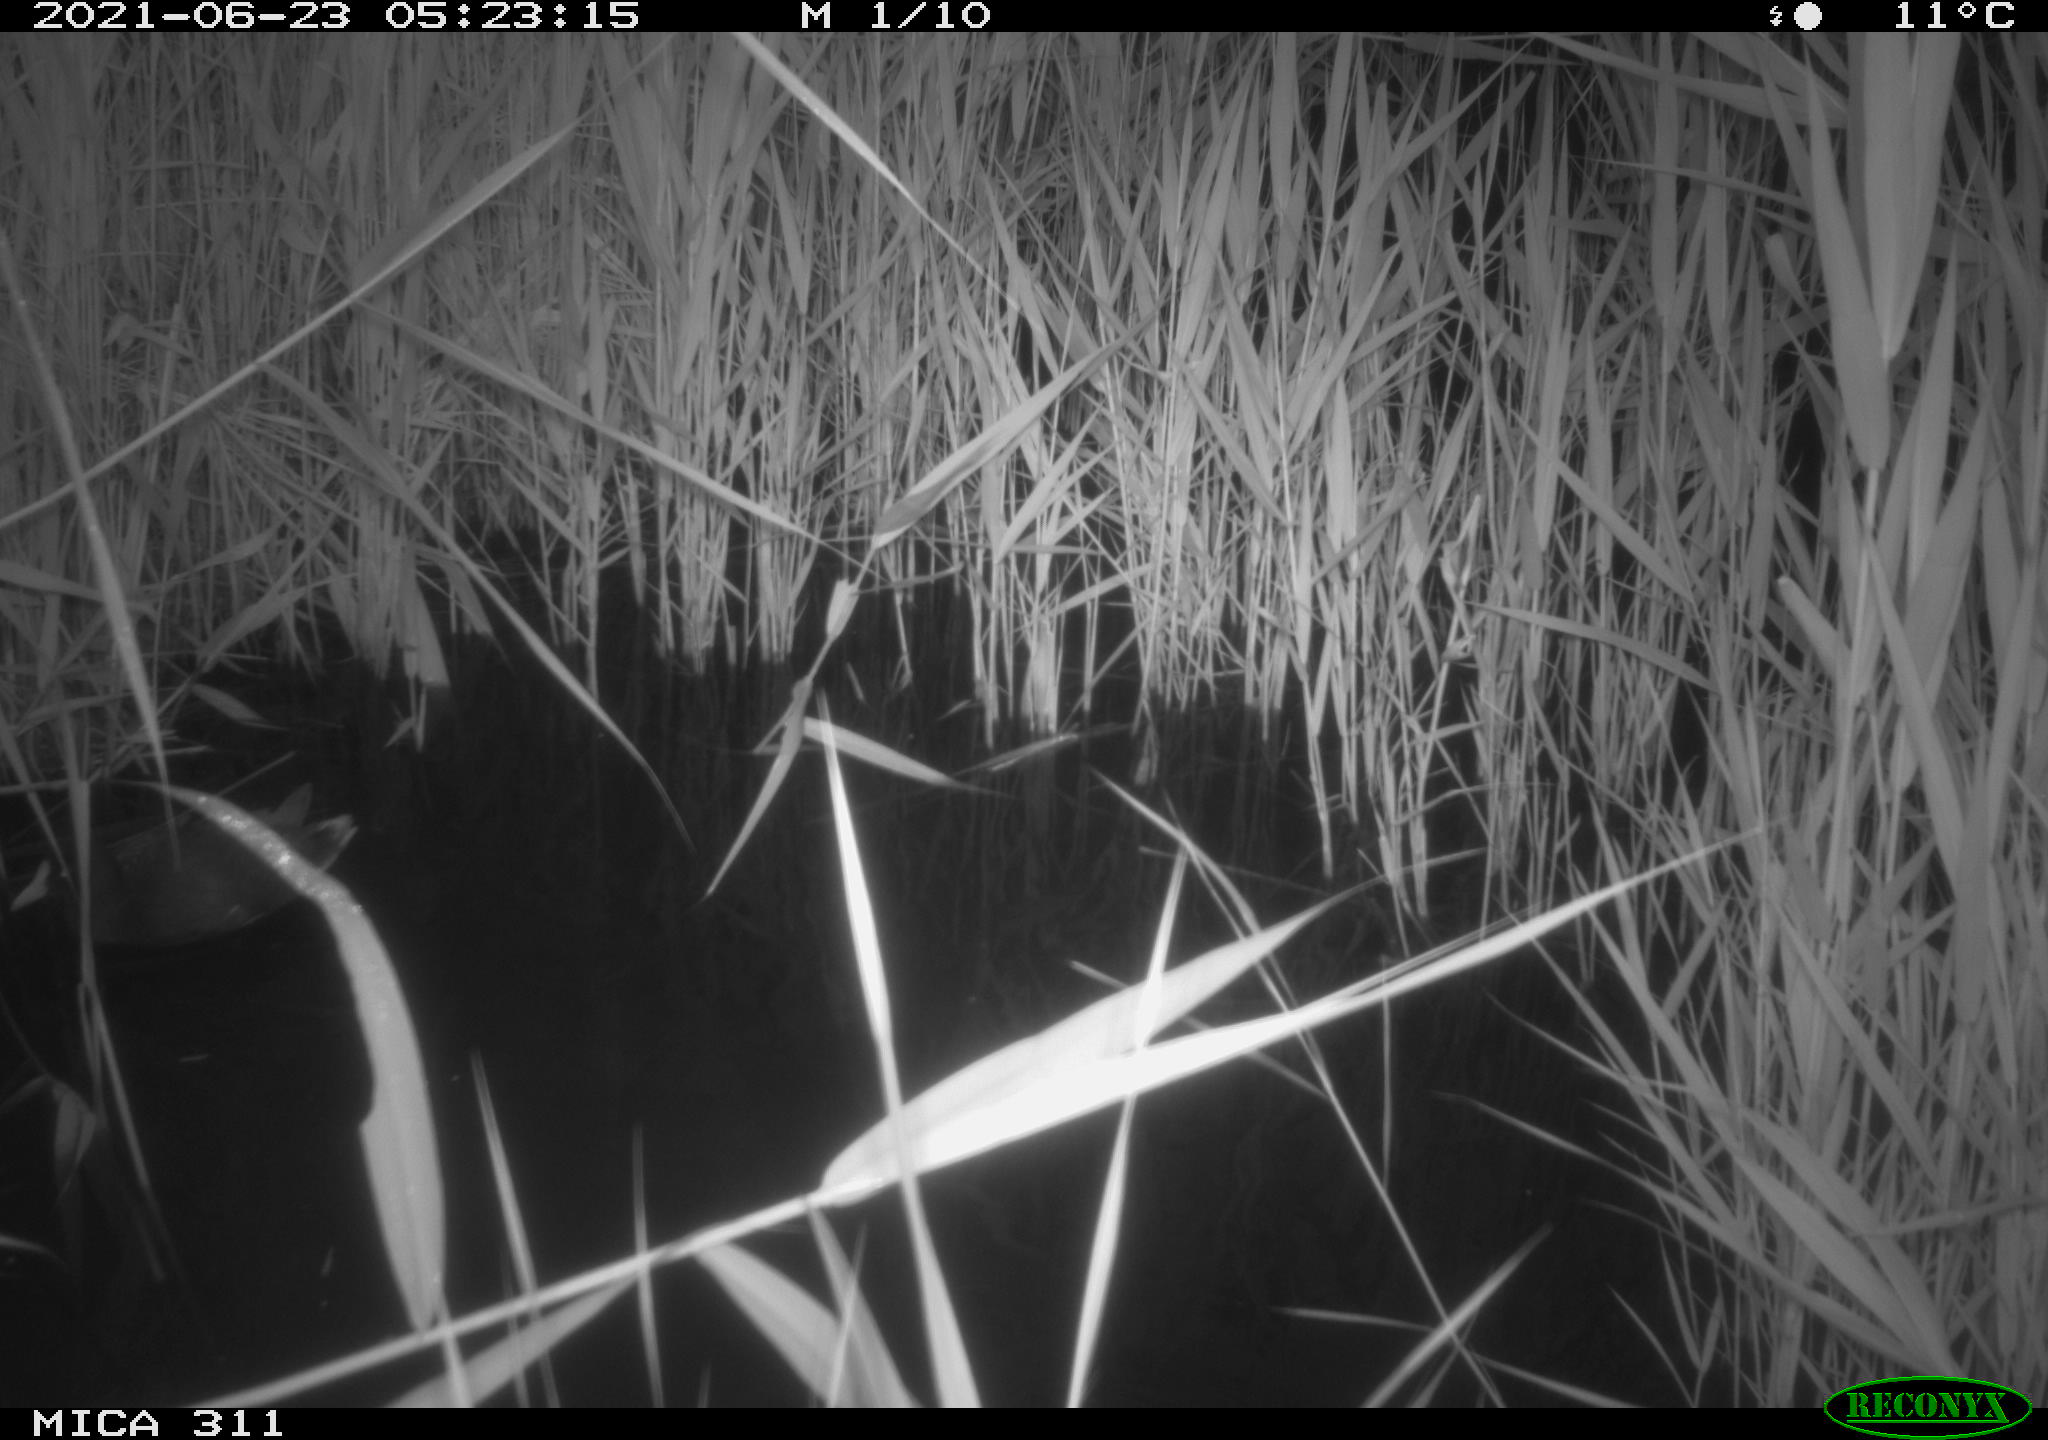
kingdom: Animalia
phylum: Chordata
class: Aves
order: Gruiformes
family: Rallidae
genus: Gallinula
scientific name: Gallinula chloropus
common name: Common moorhen
